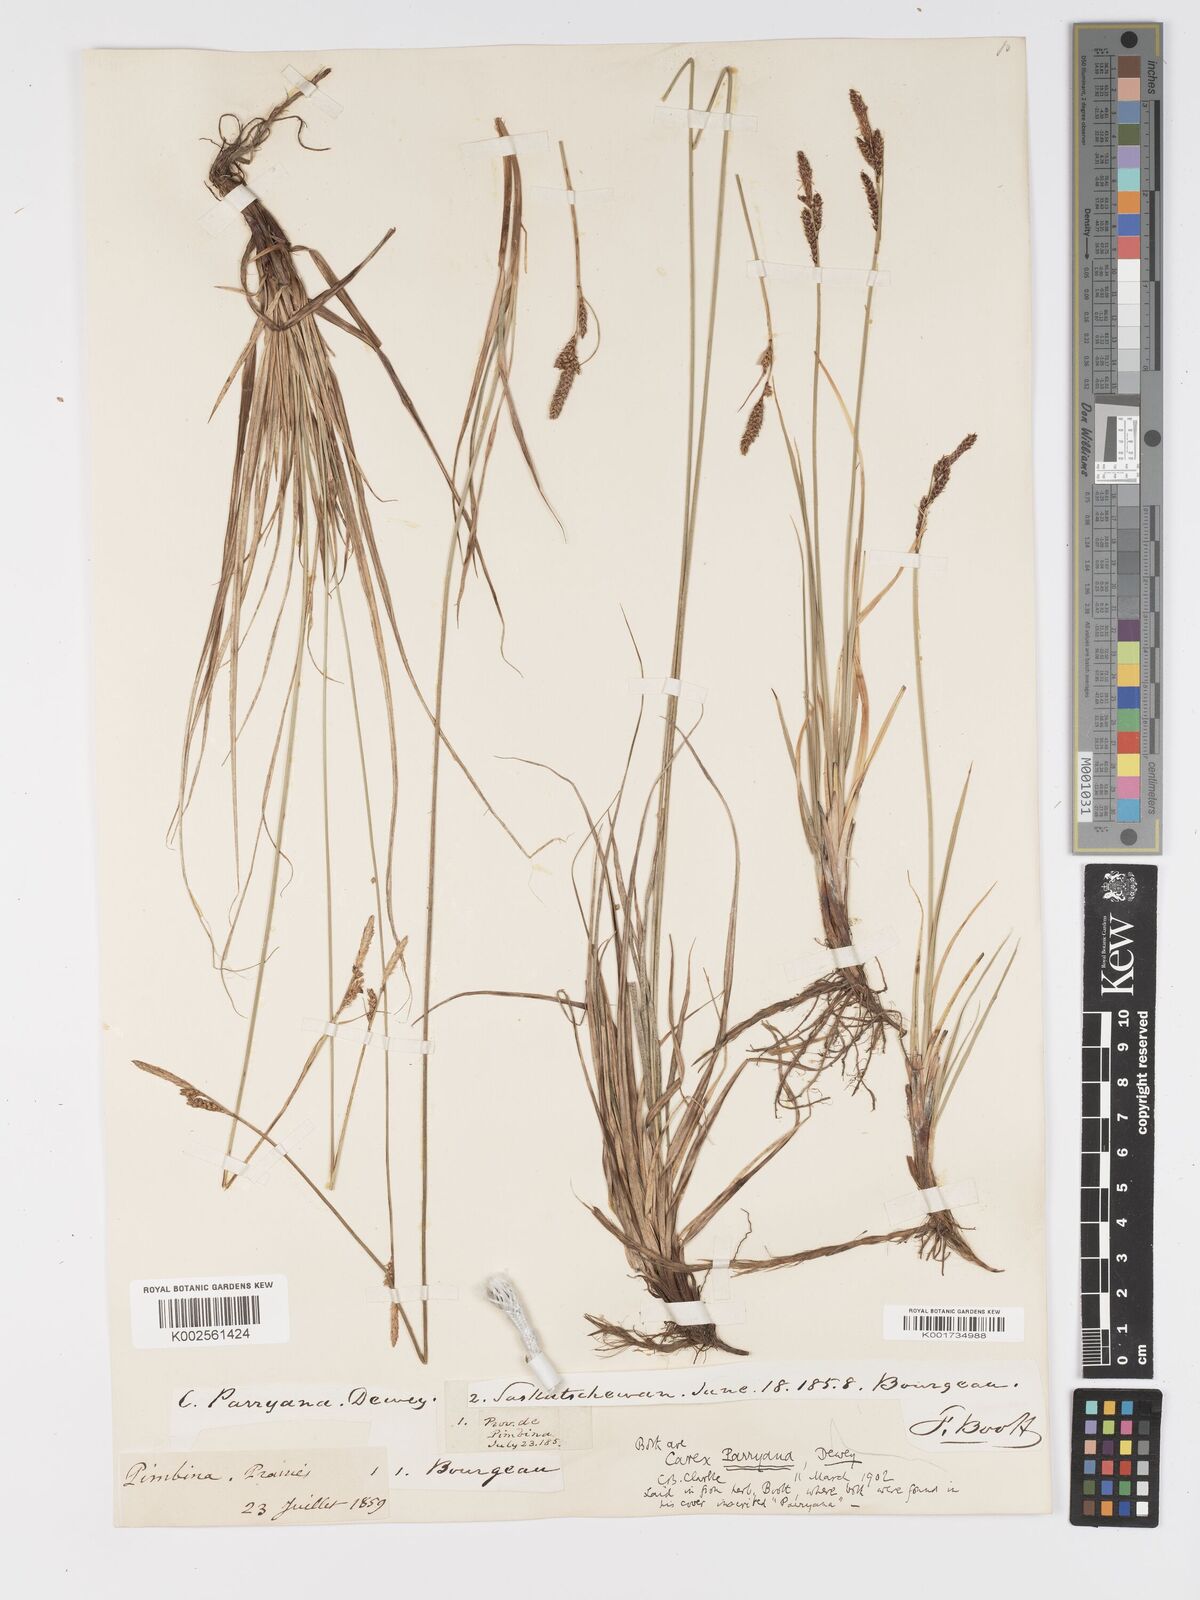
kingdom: Plantae
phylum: Tracheophyta
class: Liliopsida
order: Poales
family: Cyperaceae
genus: Carex
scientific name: Carex parryana
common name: Parry's sedge
